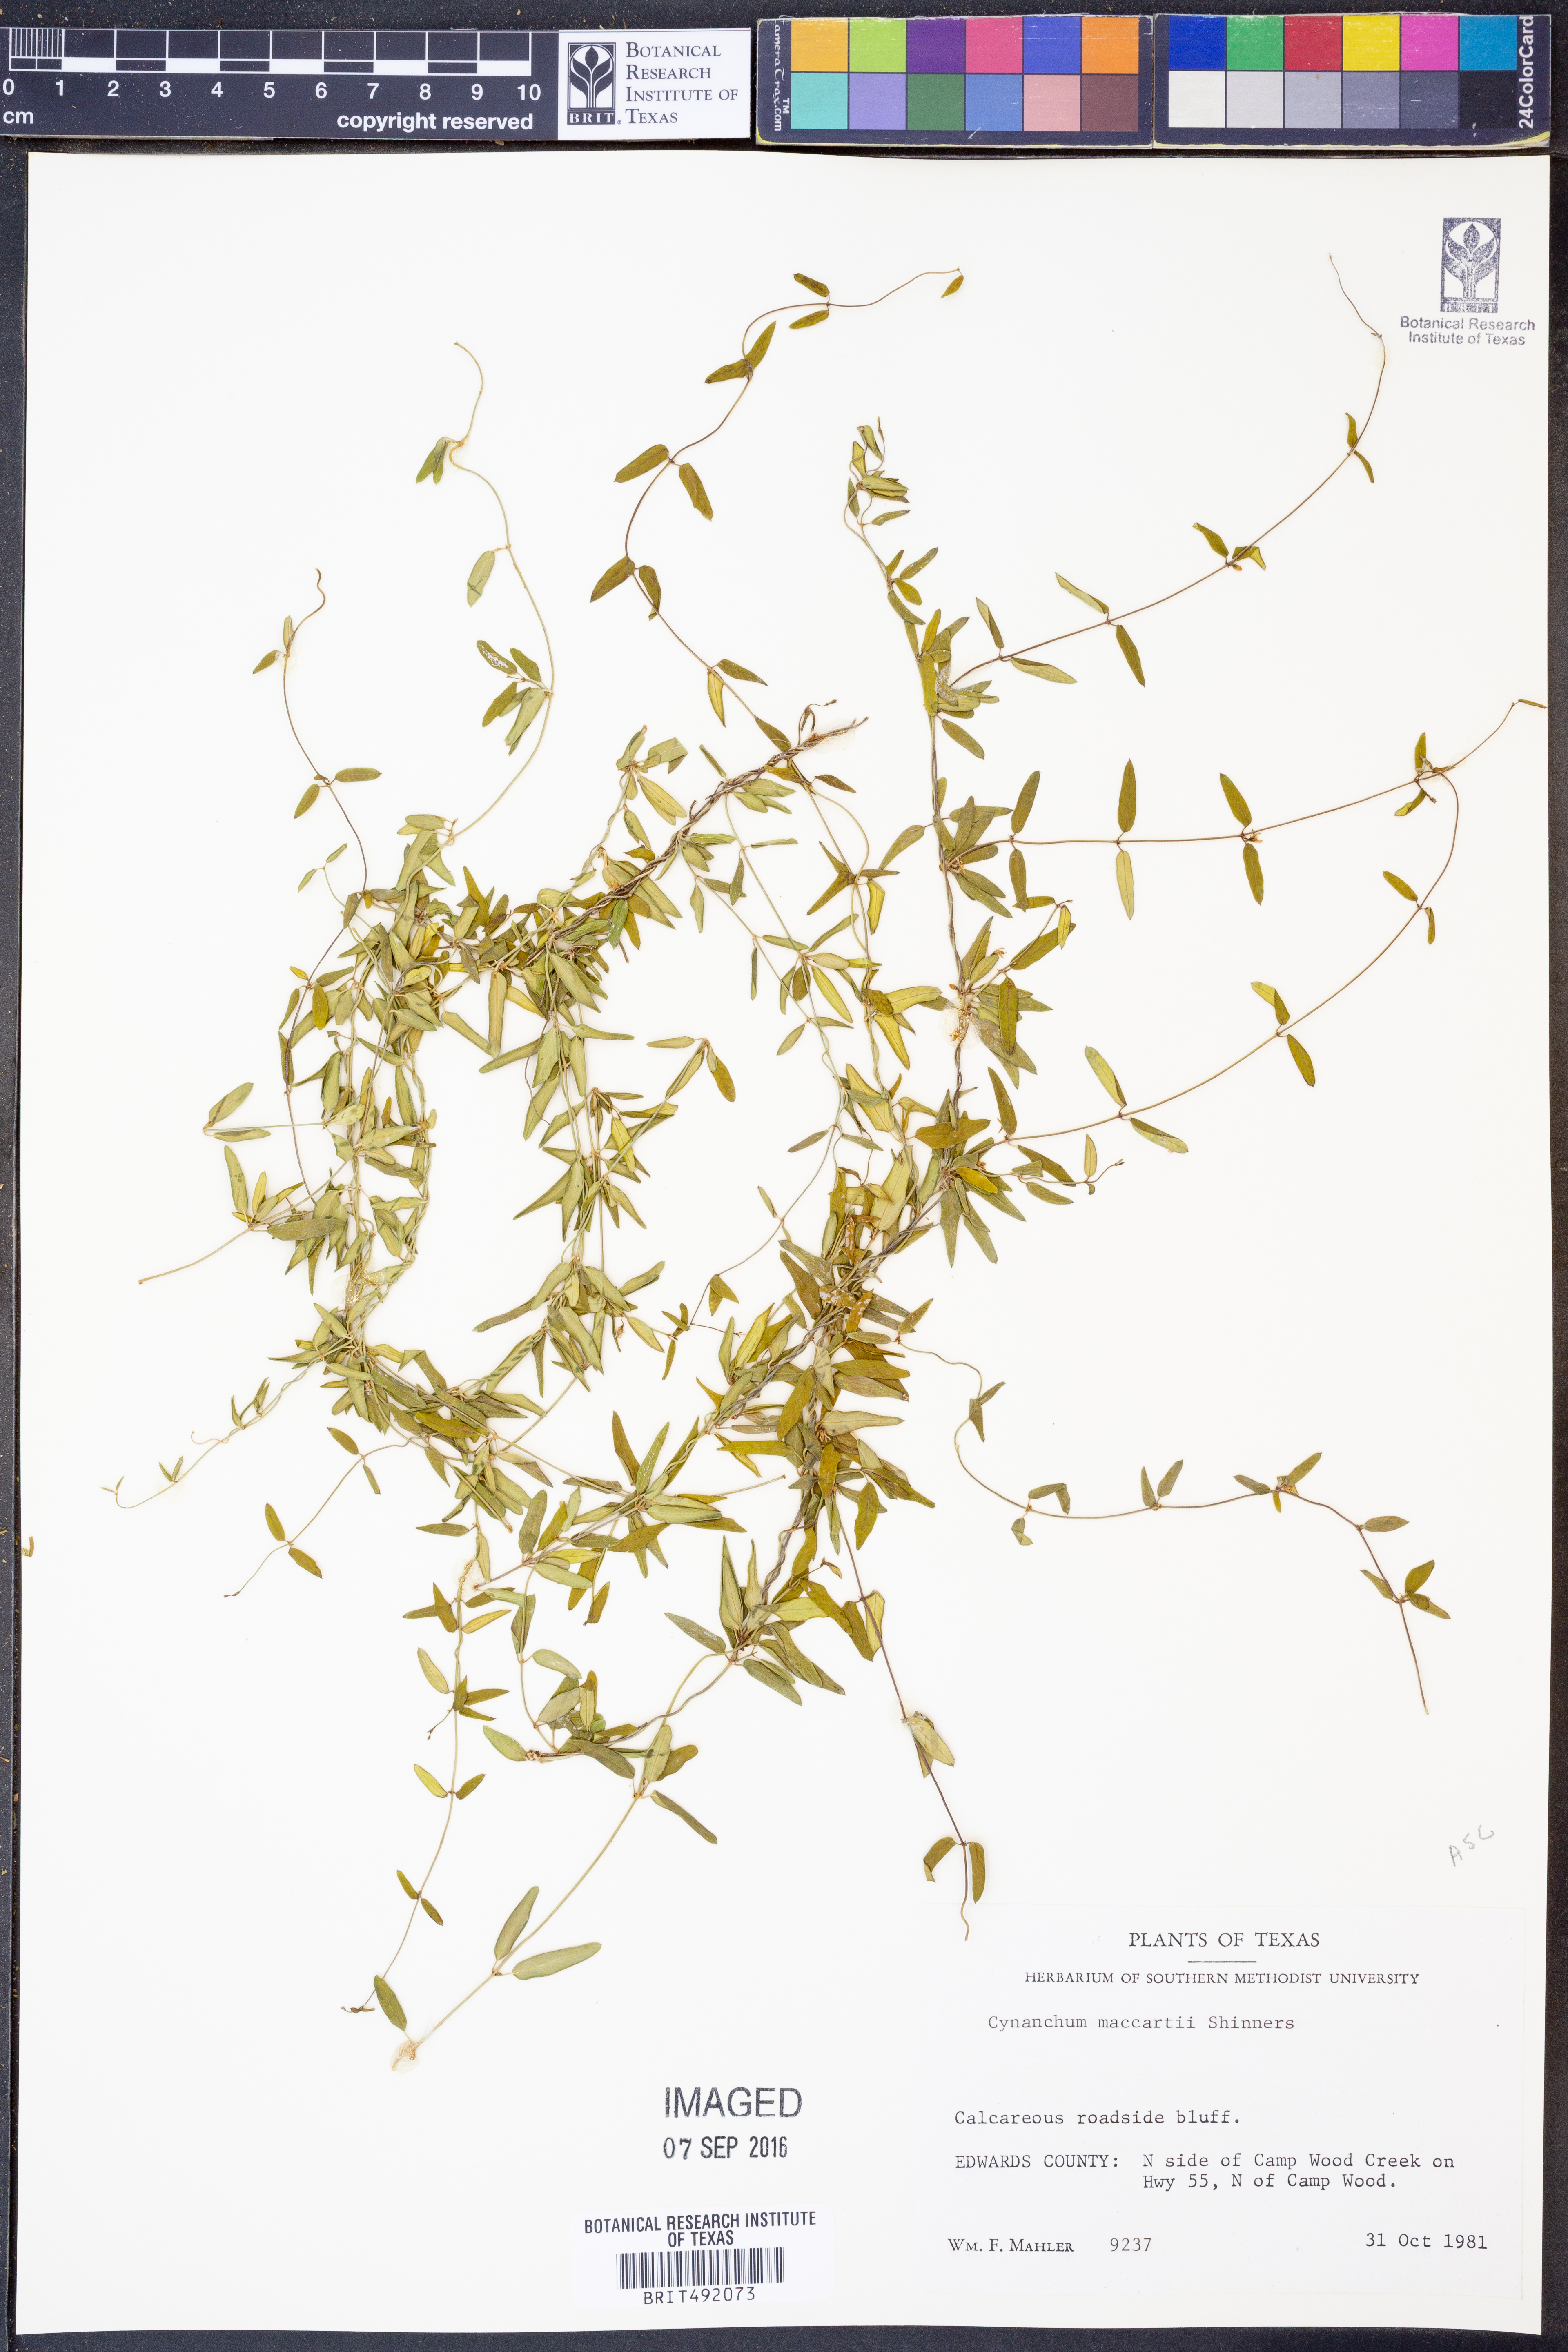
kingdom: Plantae
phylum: Tracheophyta
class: Magnoliopsida
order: Gentianales
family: Apocynaceae
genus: Metastelma
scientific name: Metastelma palmeri
